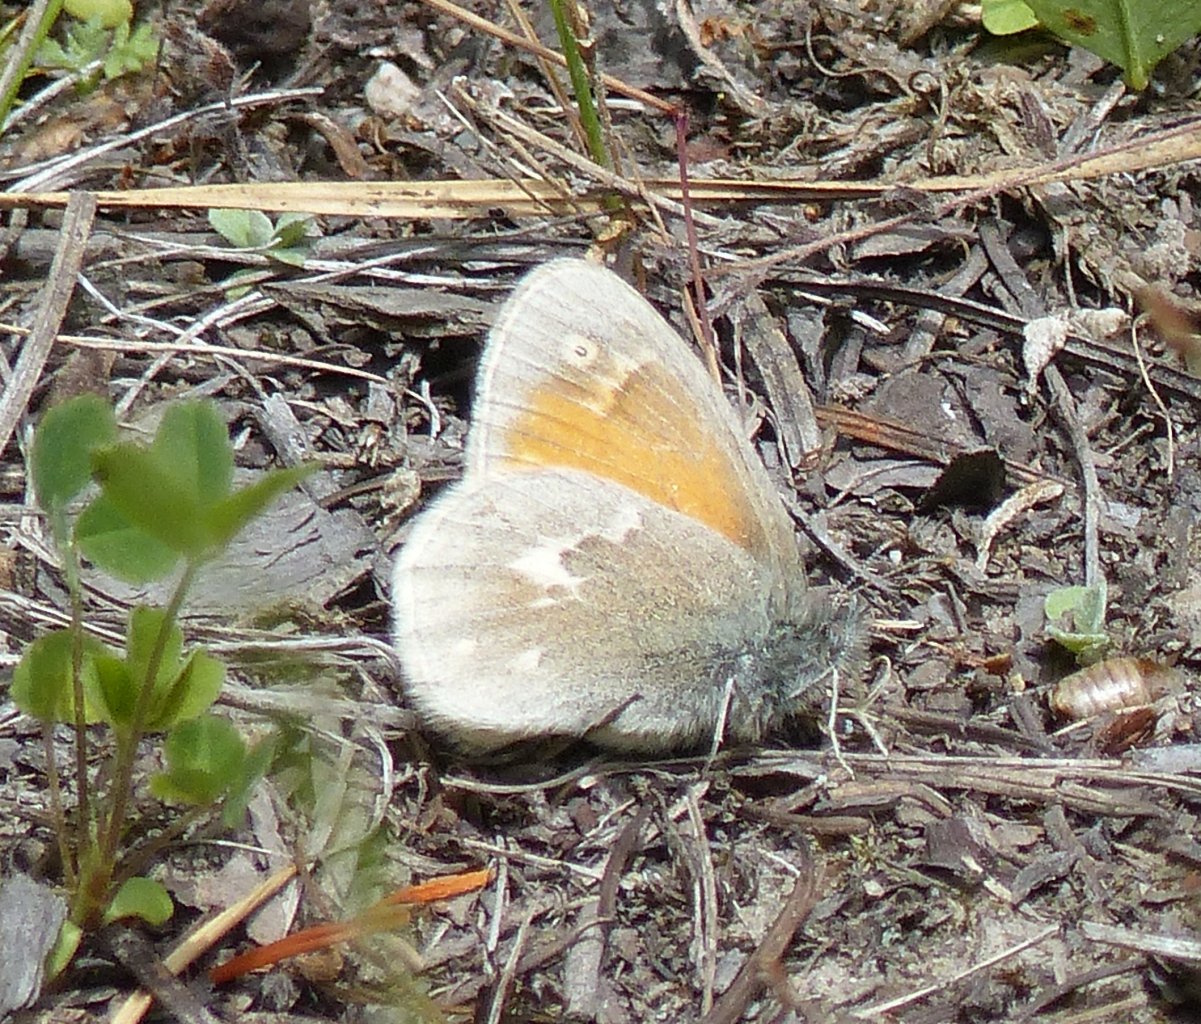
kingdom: Animalia
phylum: Arthropoda
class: Insecta
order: Lepidoptera
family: Nymphalidae
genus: Coenonympha
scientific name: Coenonympha tullia
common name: Large Heath
